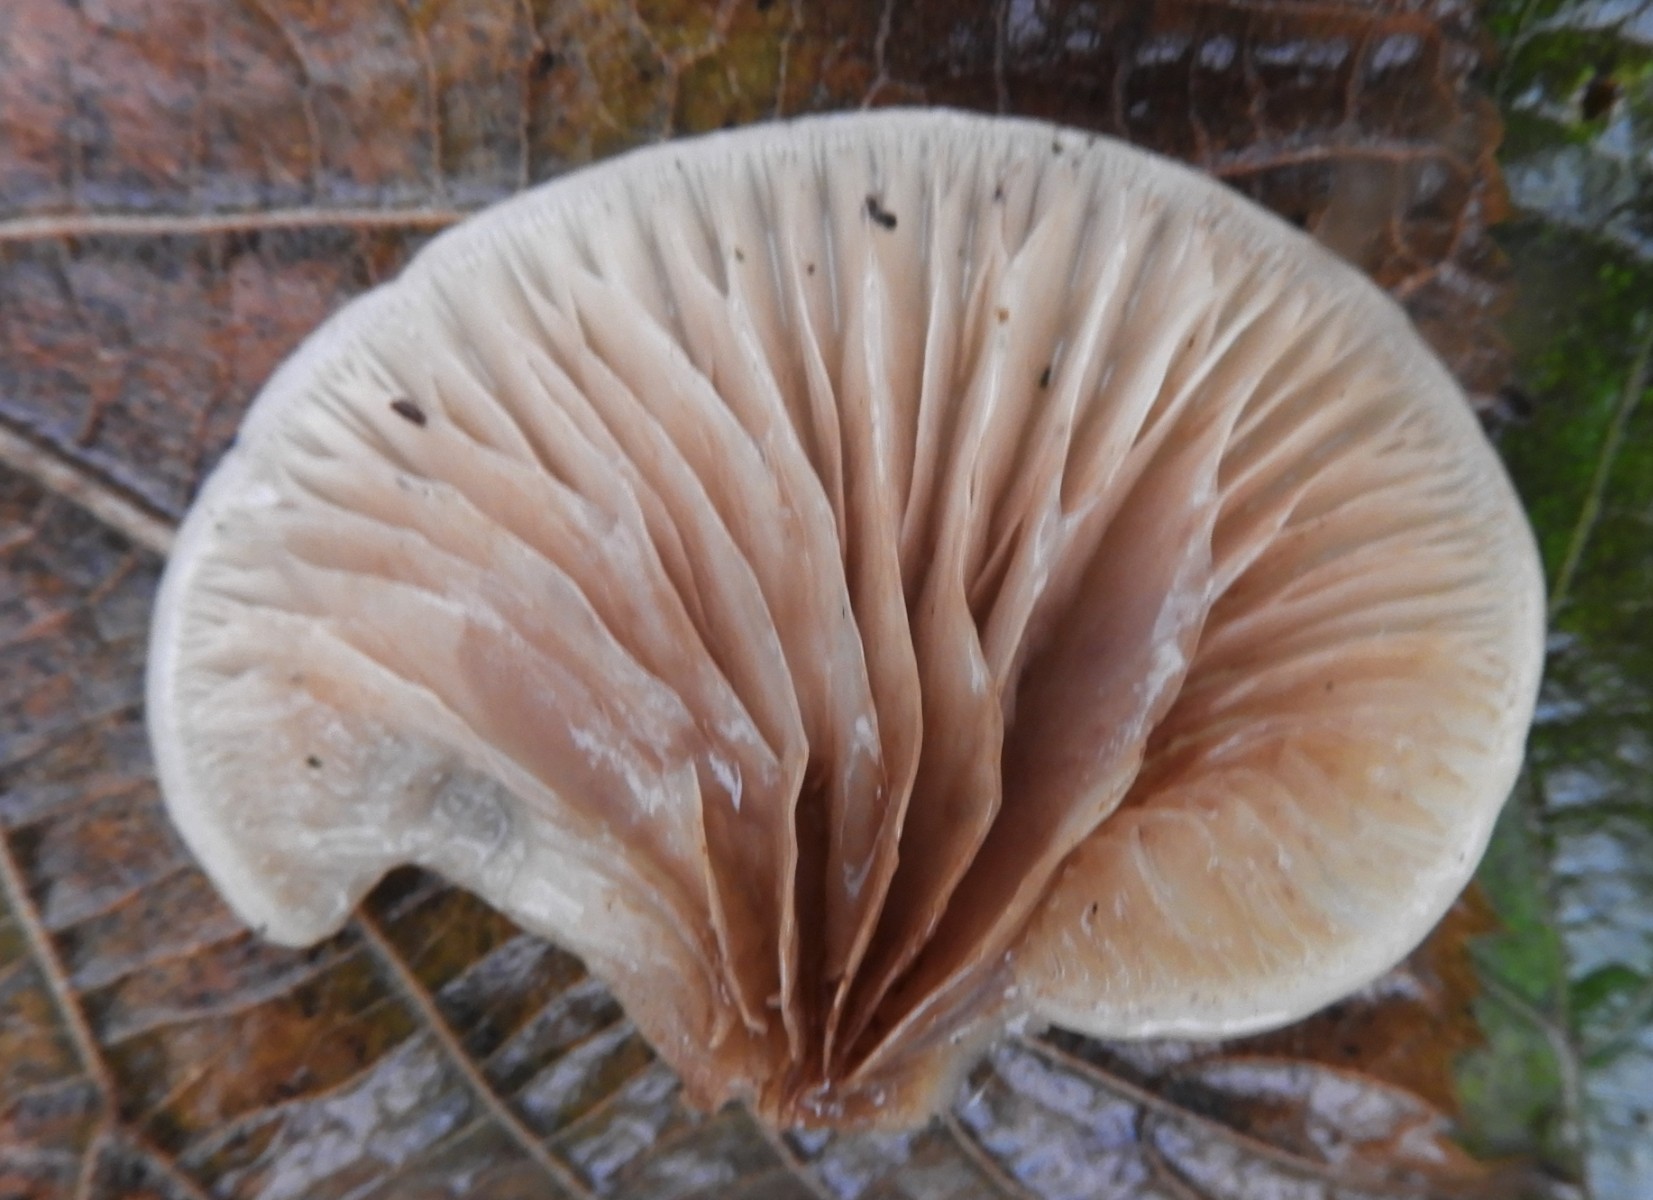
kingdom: Fungi
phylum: Basidiomycota
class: Agaricomycetes
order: Agaricales
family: Crepidotaceae
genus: Crepidotus
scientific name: Crepidotus mollis
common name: blød muslingesvamp
